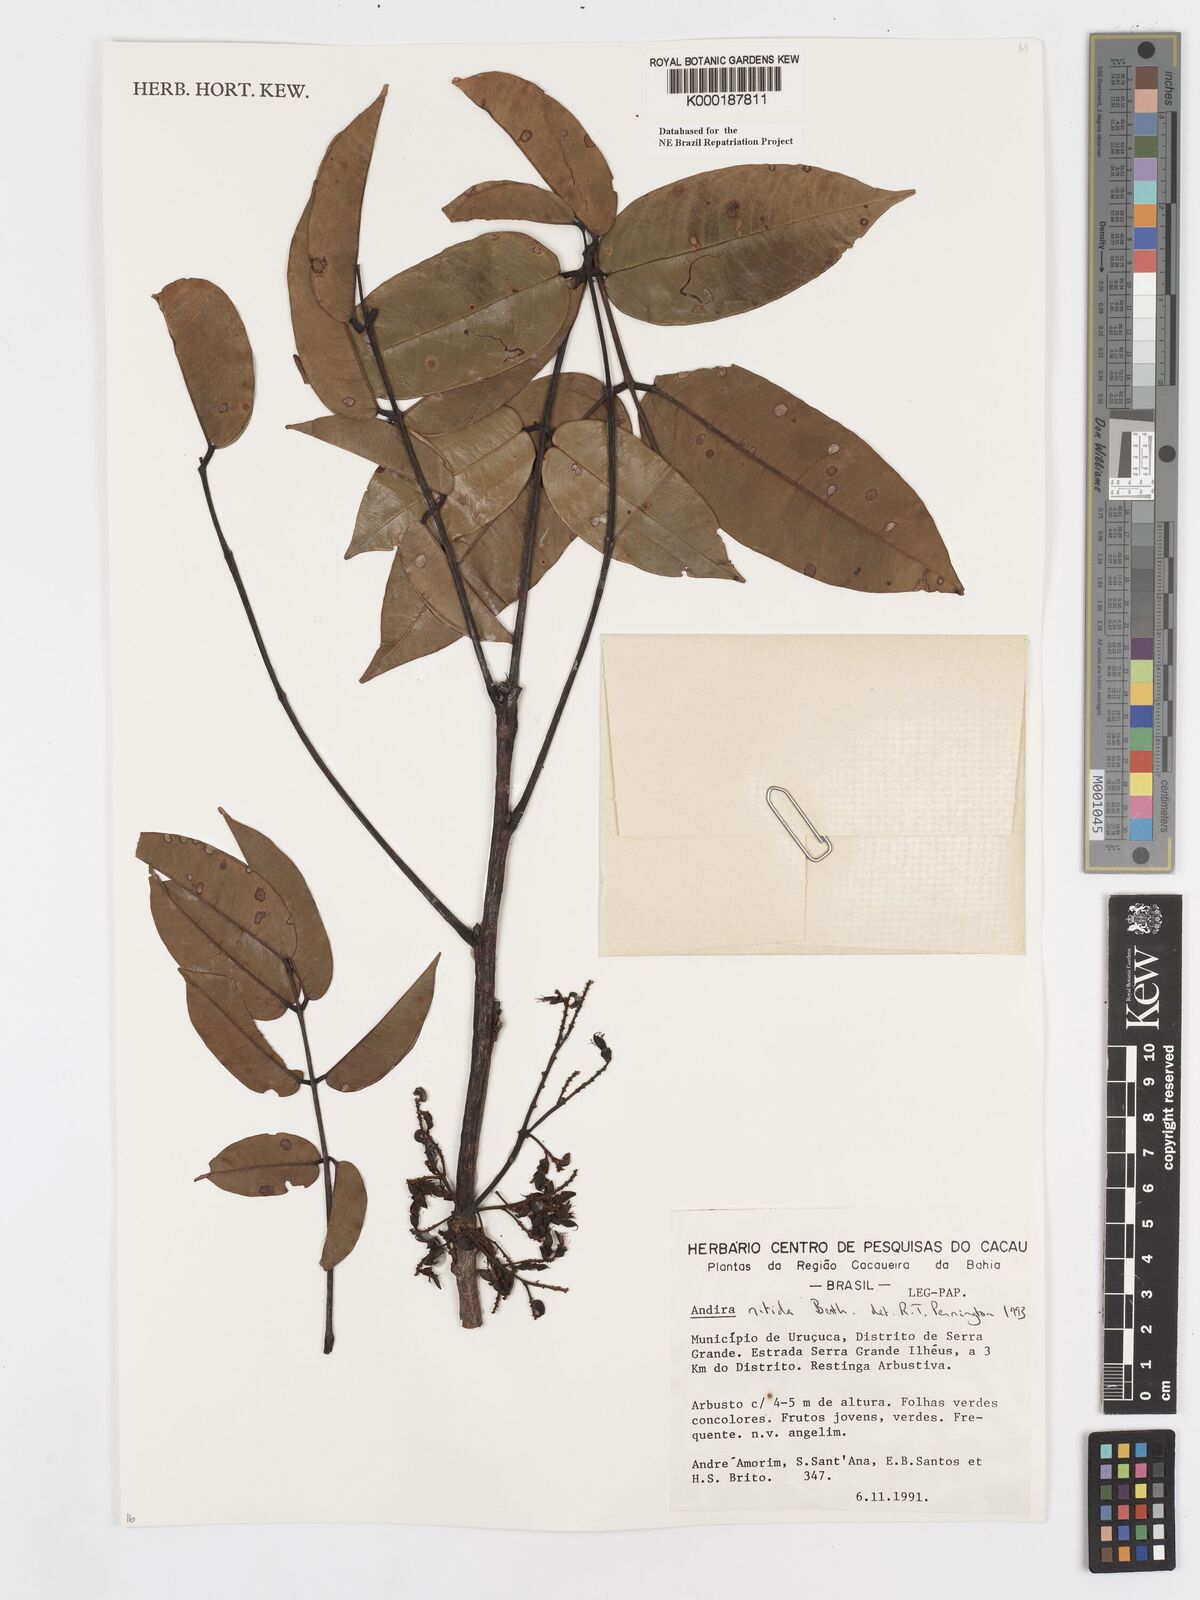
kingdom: Plantae
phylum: Tracheophyta
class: Magnoliopsida
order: Fabales
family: Fabaceae
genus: Andira
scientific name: Andira nitida
